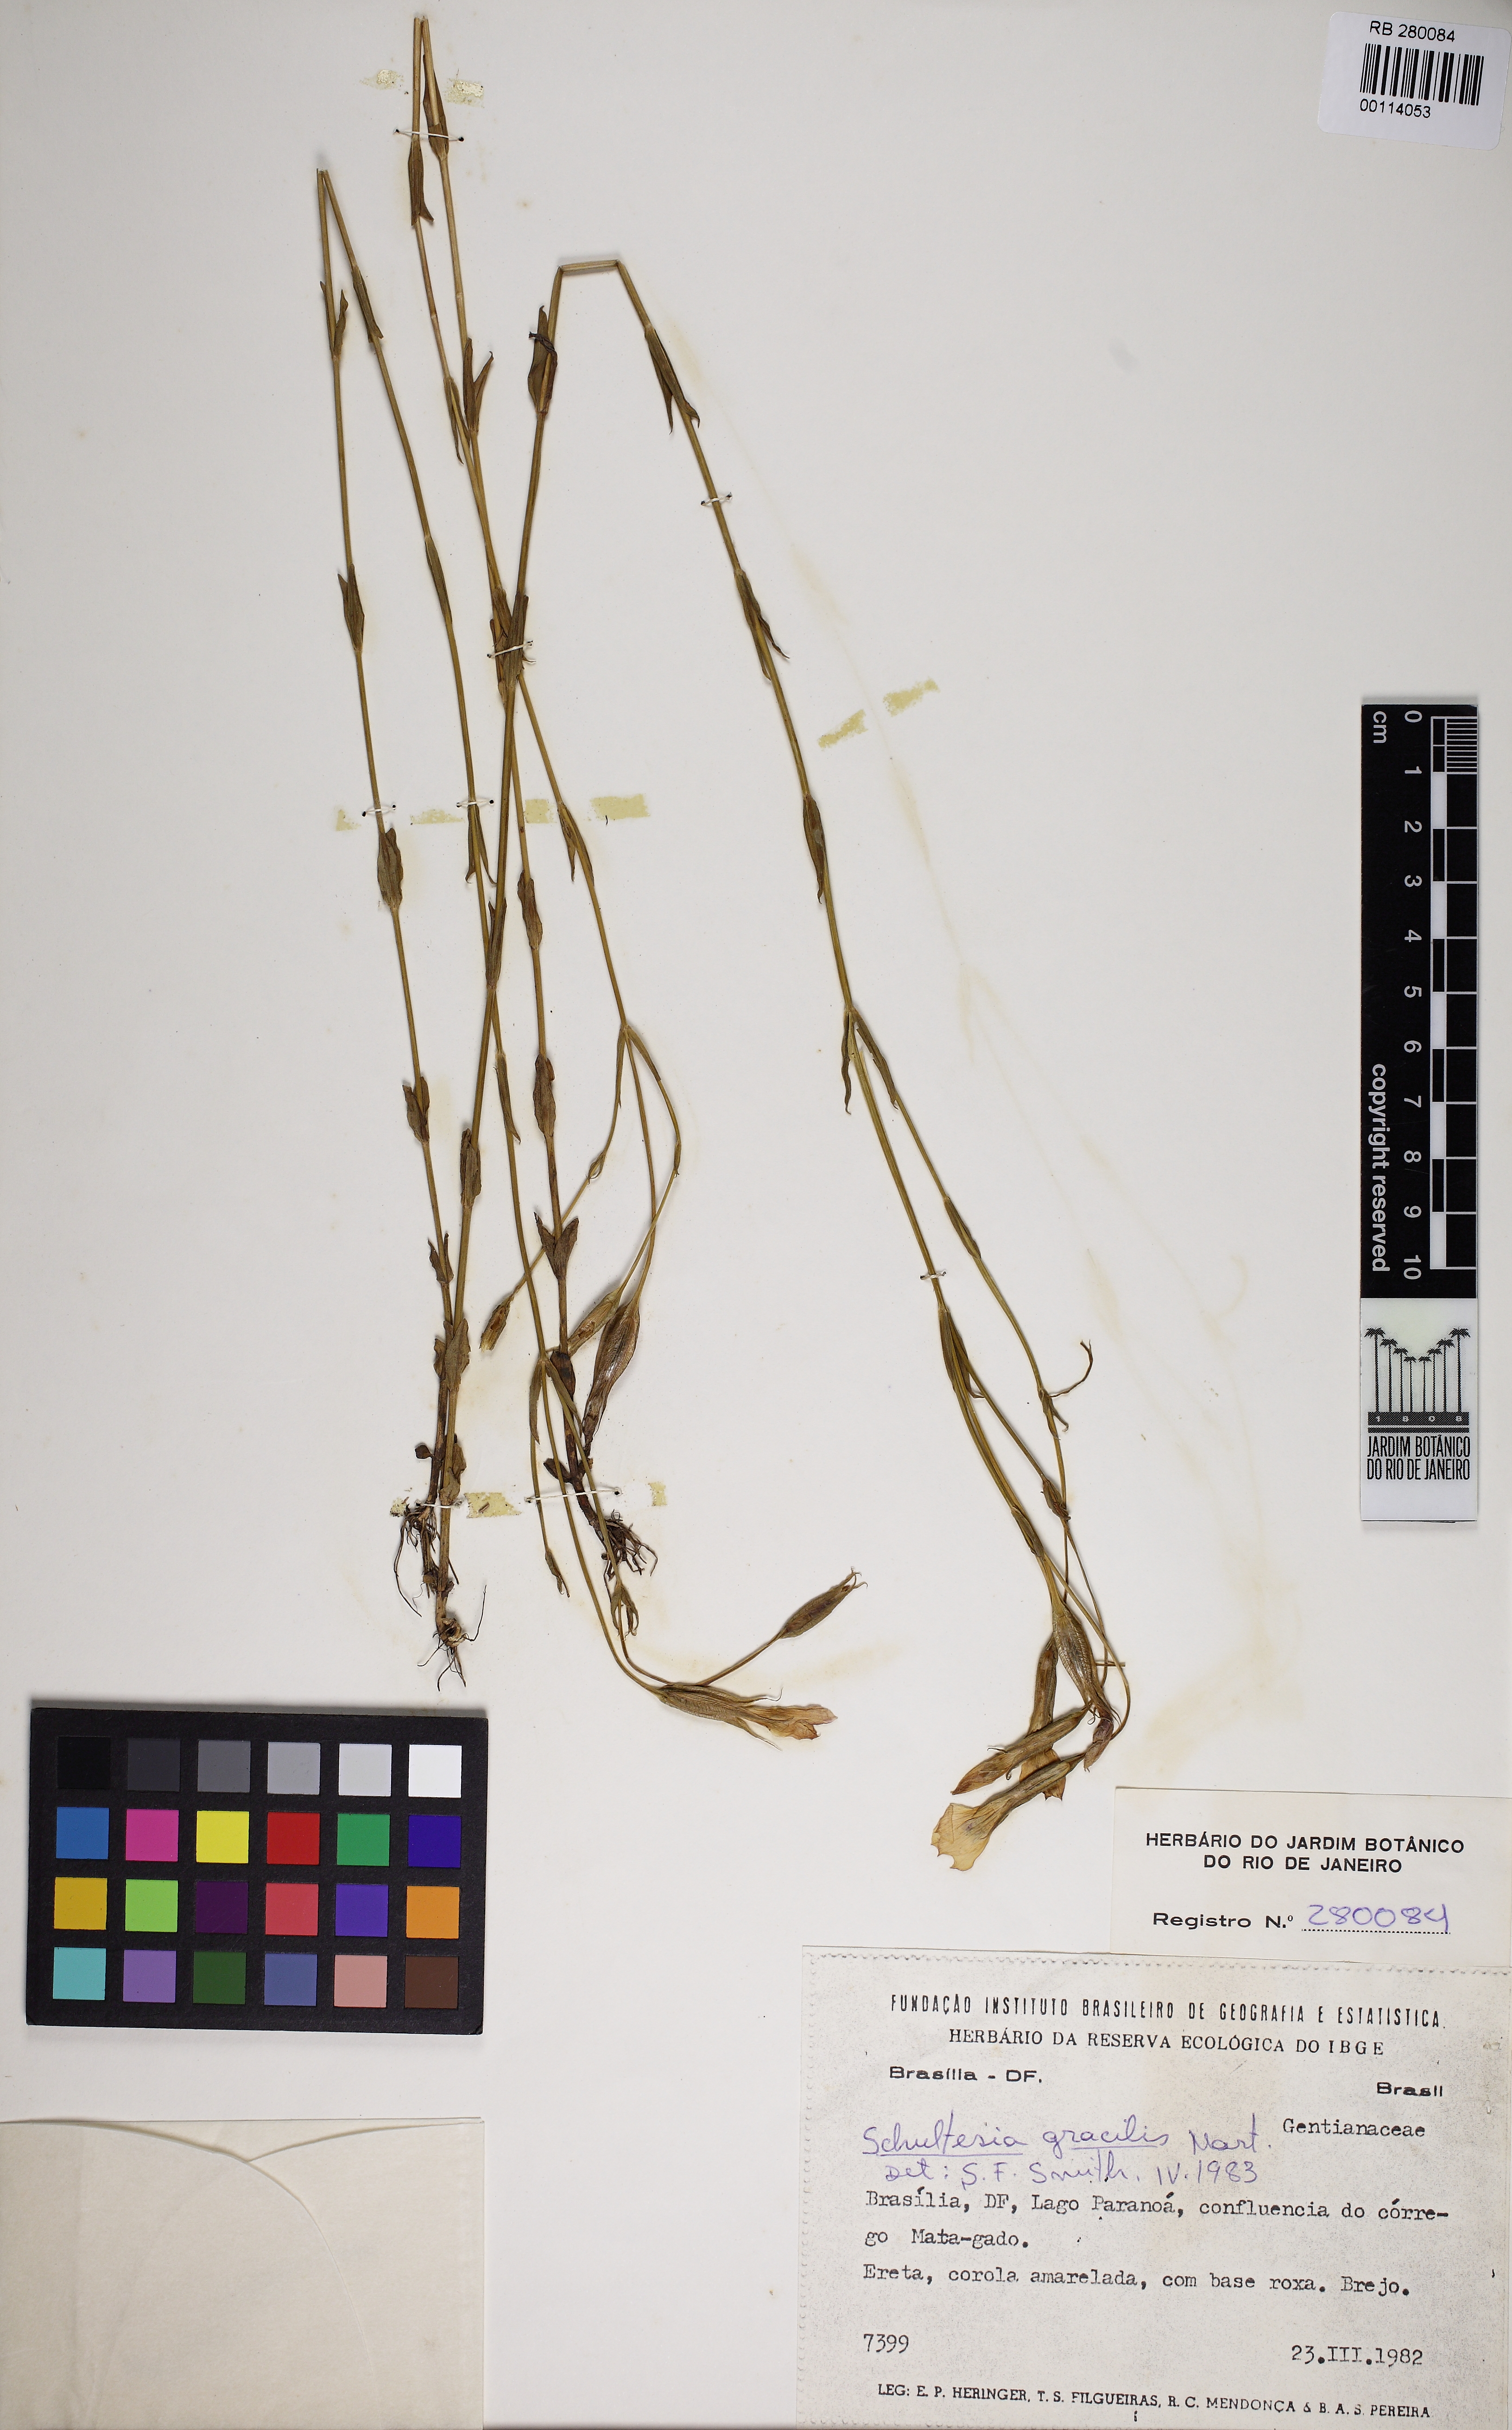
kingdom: Plantae
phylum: Tracheophyta
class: Magnoliopsida
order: Gentianales
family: Gentianaceae
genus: Schultesia
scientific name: Schultesia gracilis
